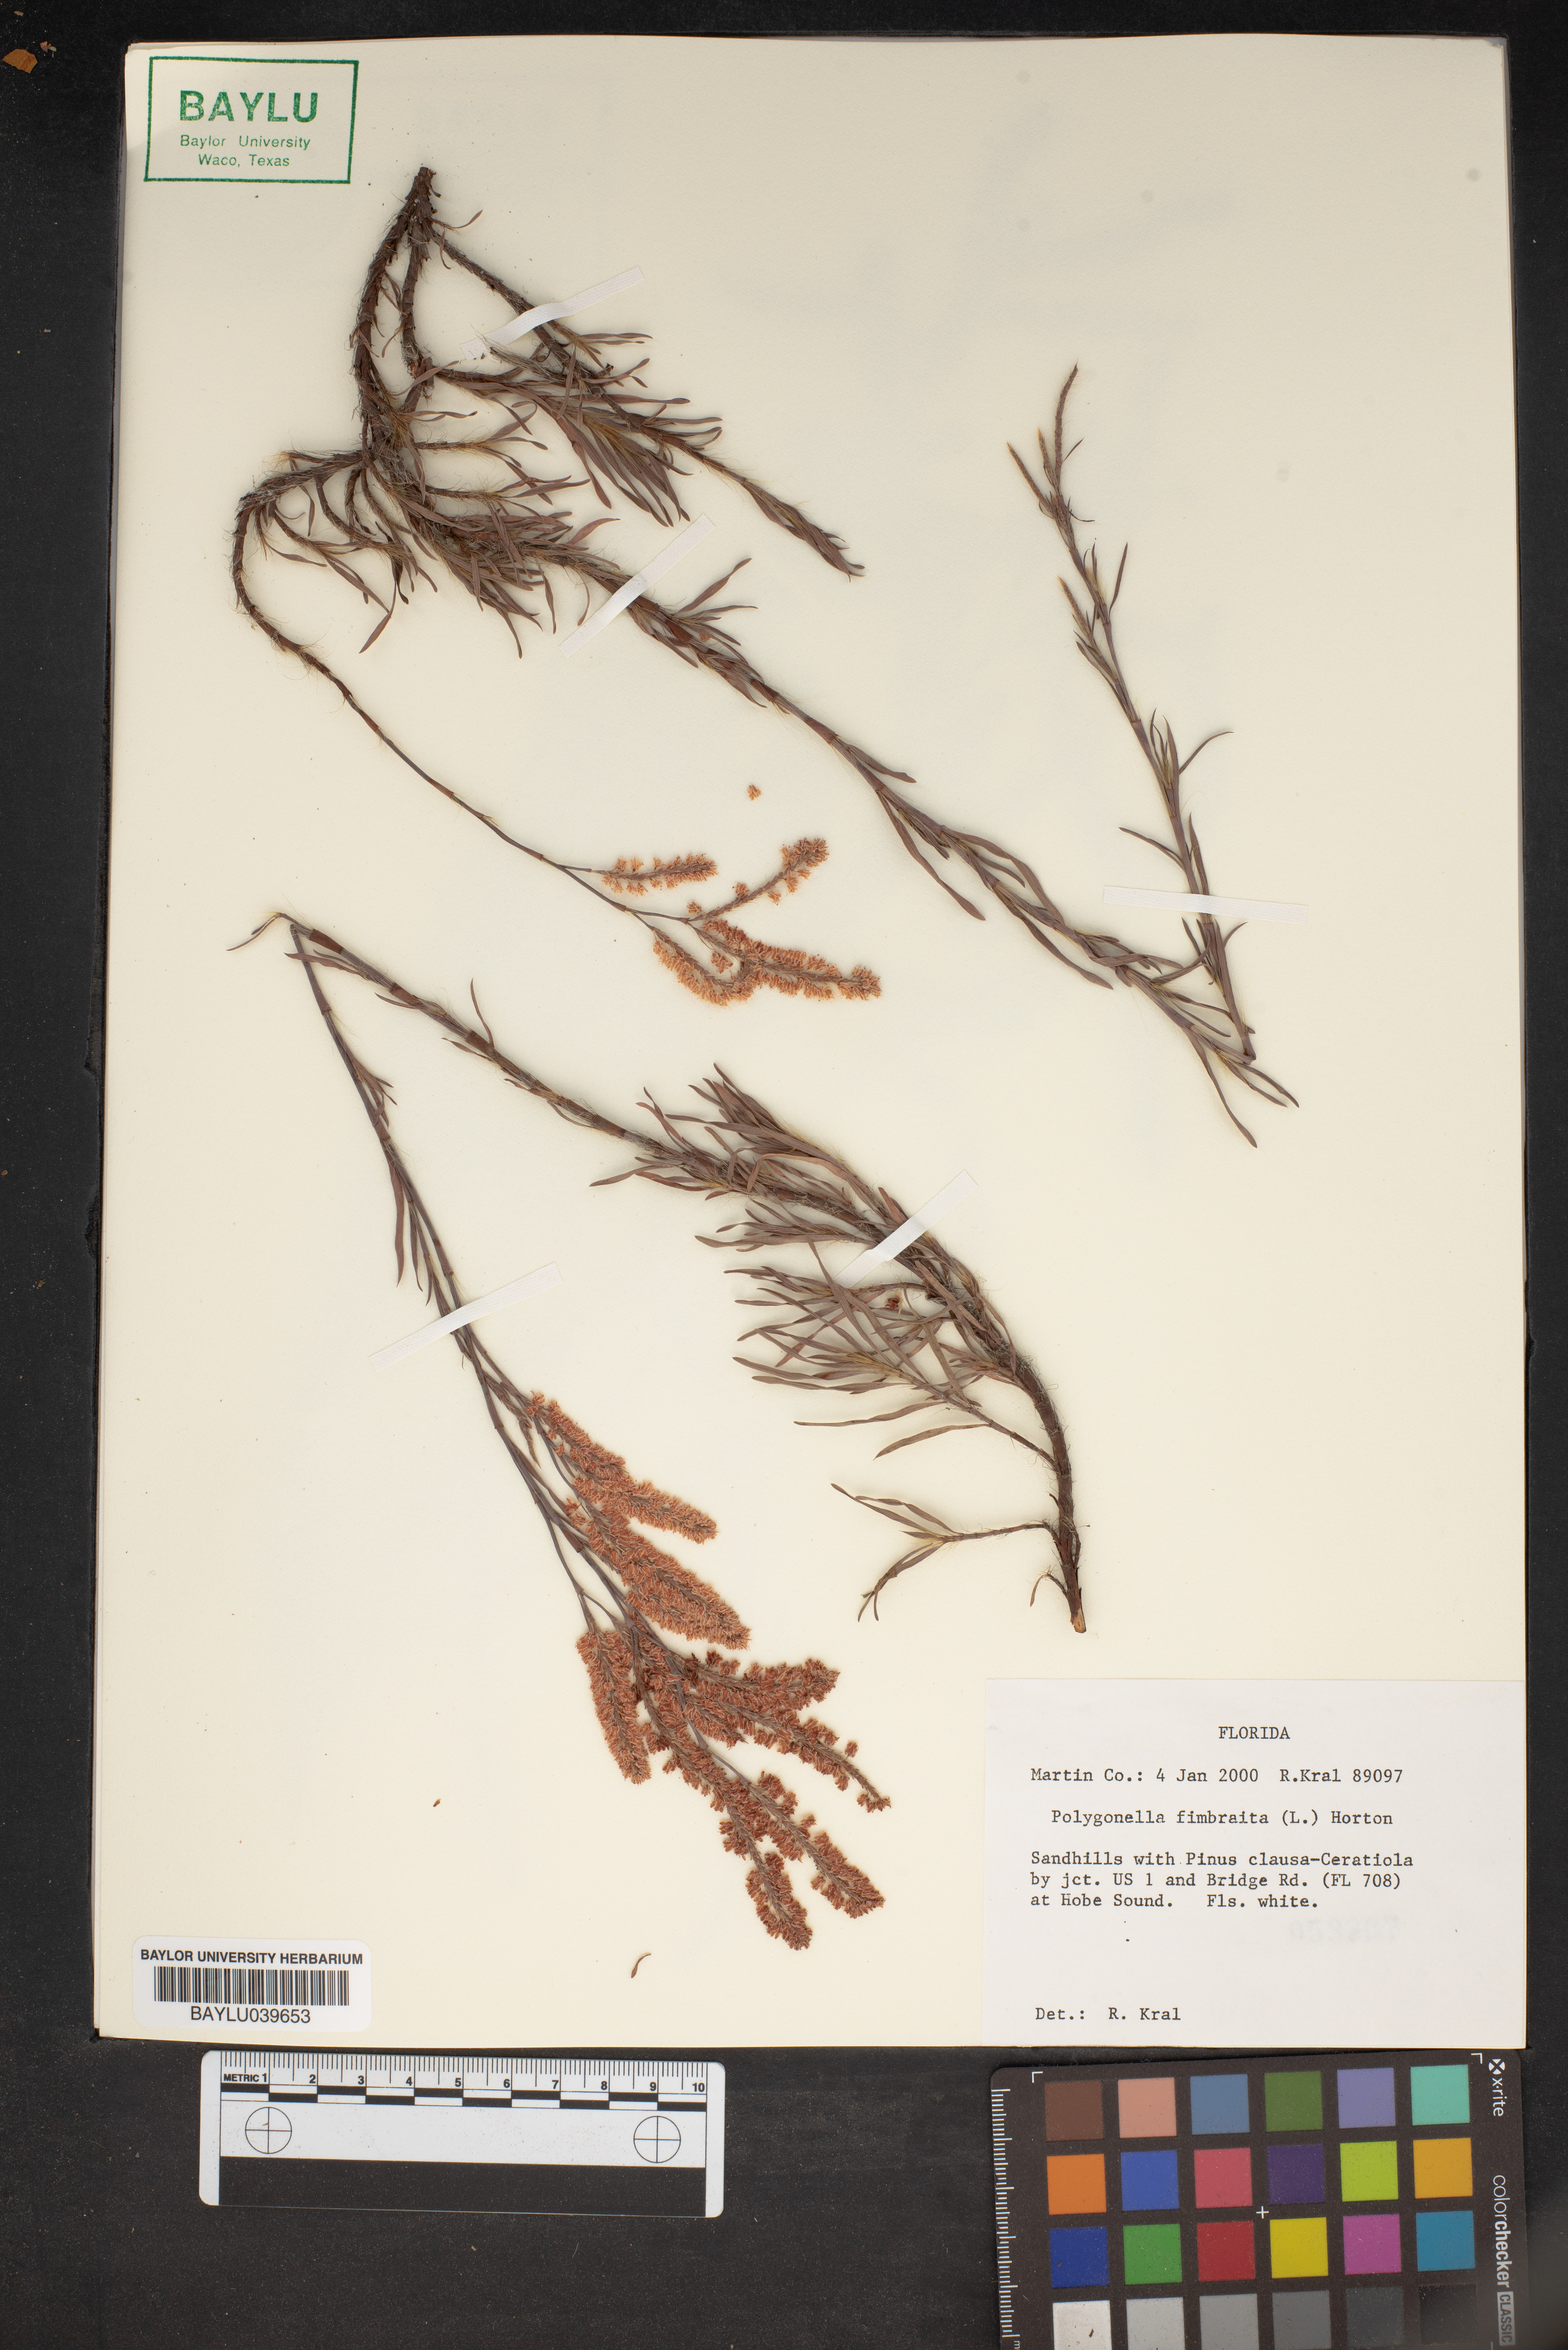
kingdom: Plantae
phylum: Tracheophyta
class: Magnoliopsida
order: Caryophyllales
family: Polygonaceae
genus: Polygonella
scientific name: Polygonella fimbriata
